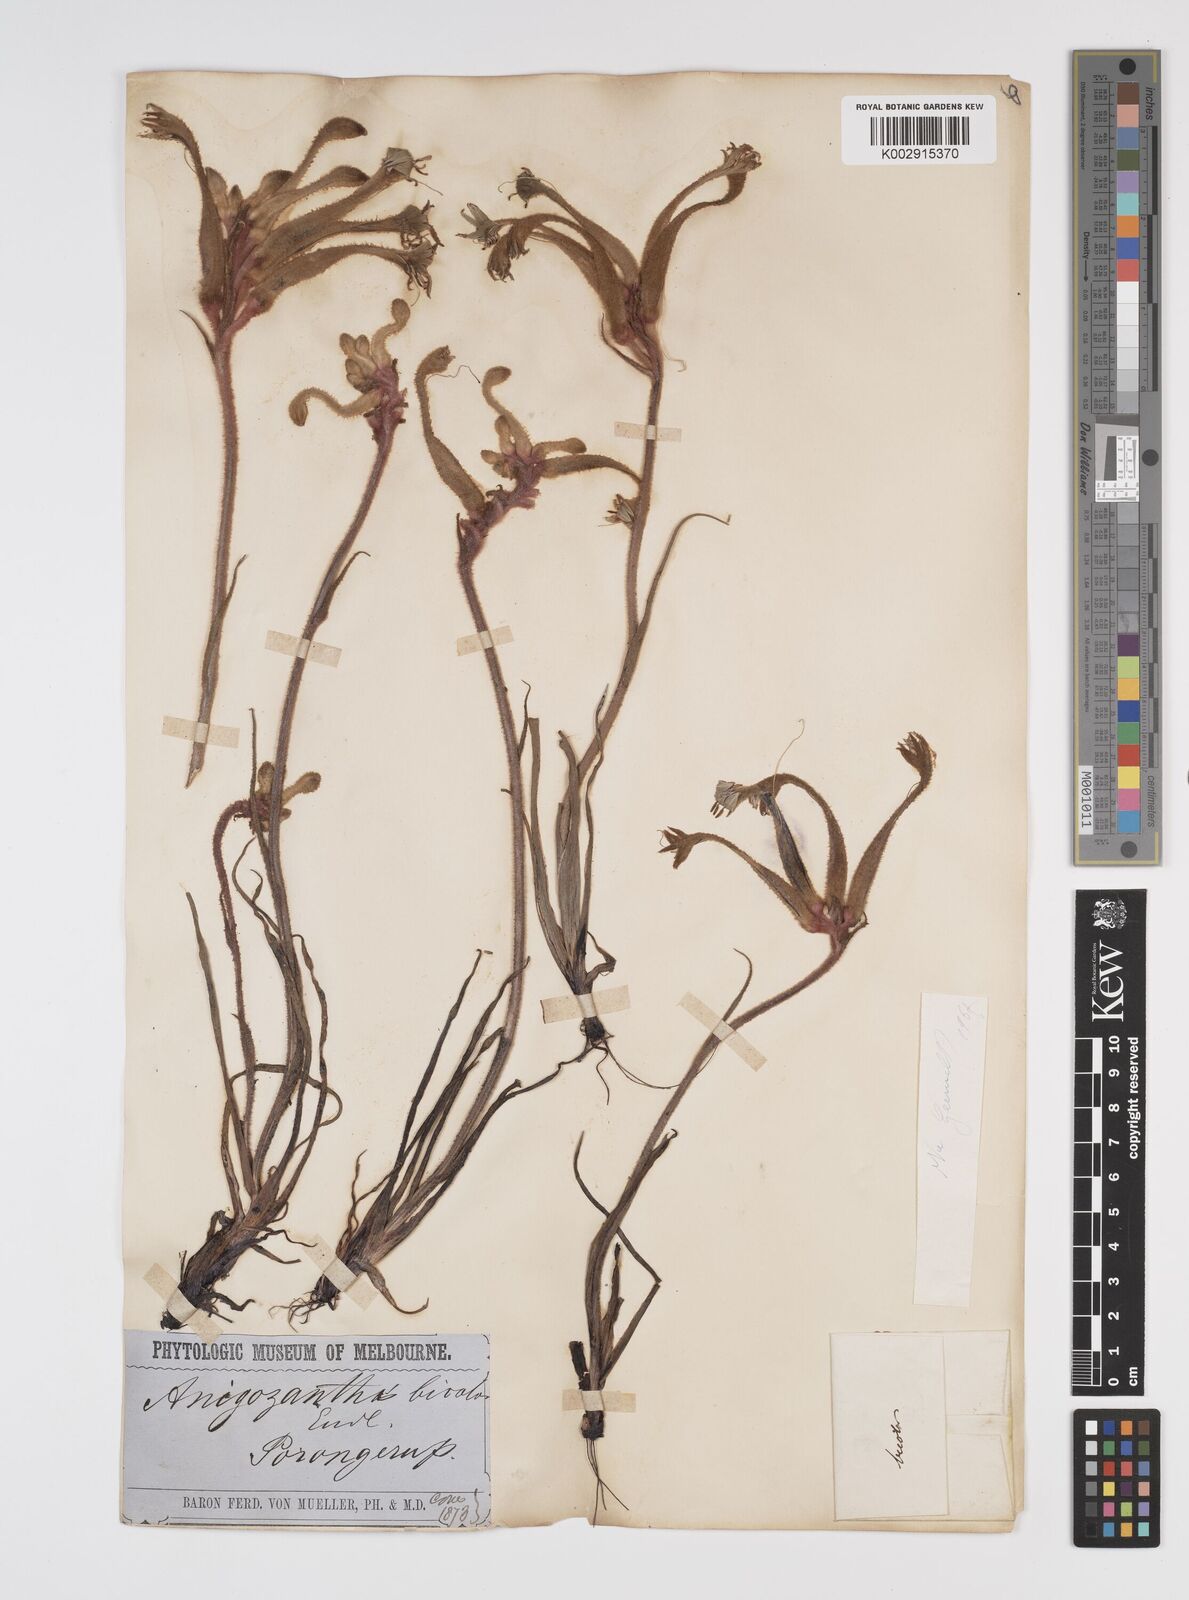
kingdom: Plantae
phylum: Tracheophyta
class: Liliopsida
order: Commelinales
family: Haemodoraceae
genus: Anigozanthos
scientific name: Anigozanthos bicolor
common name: Little kangaroo-paw
